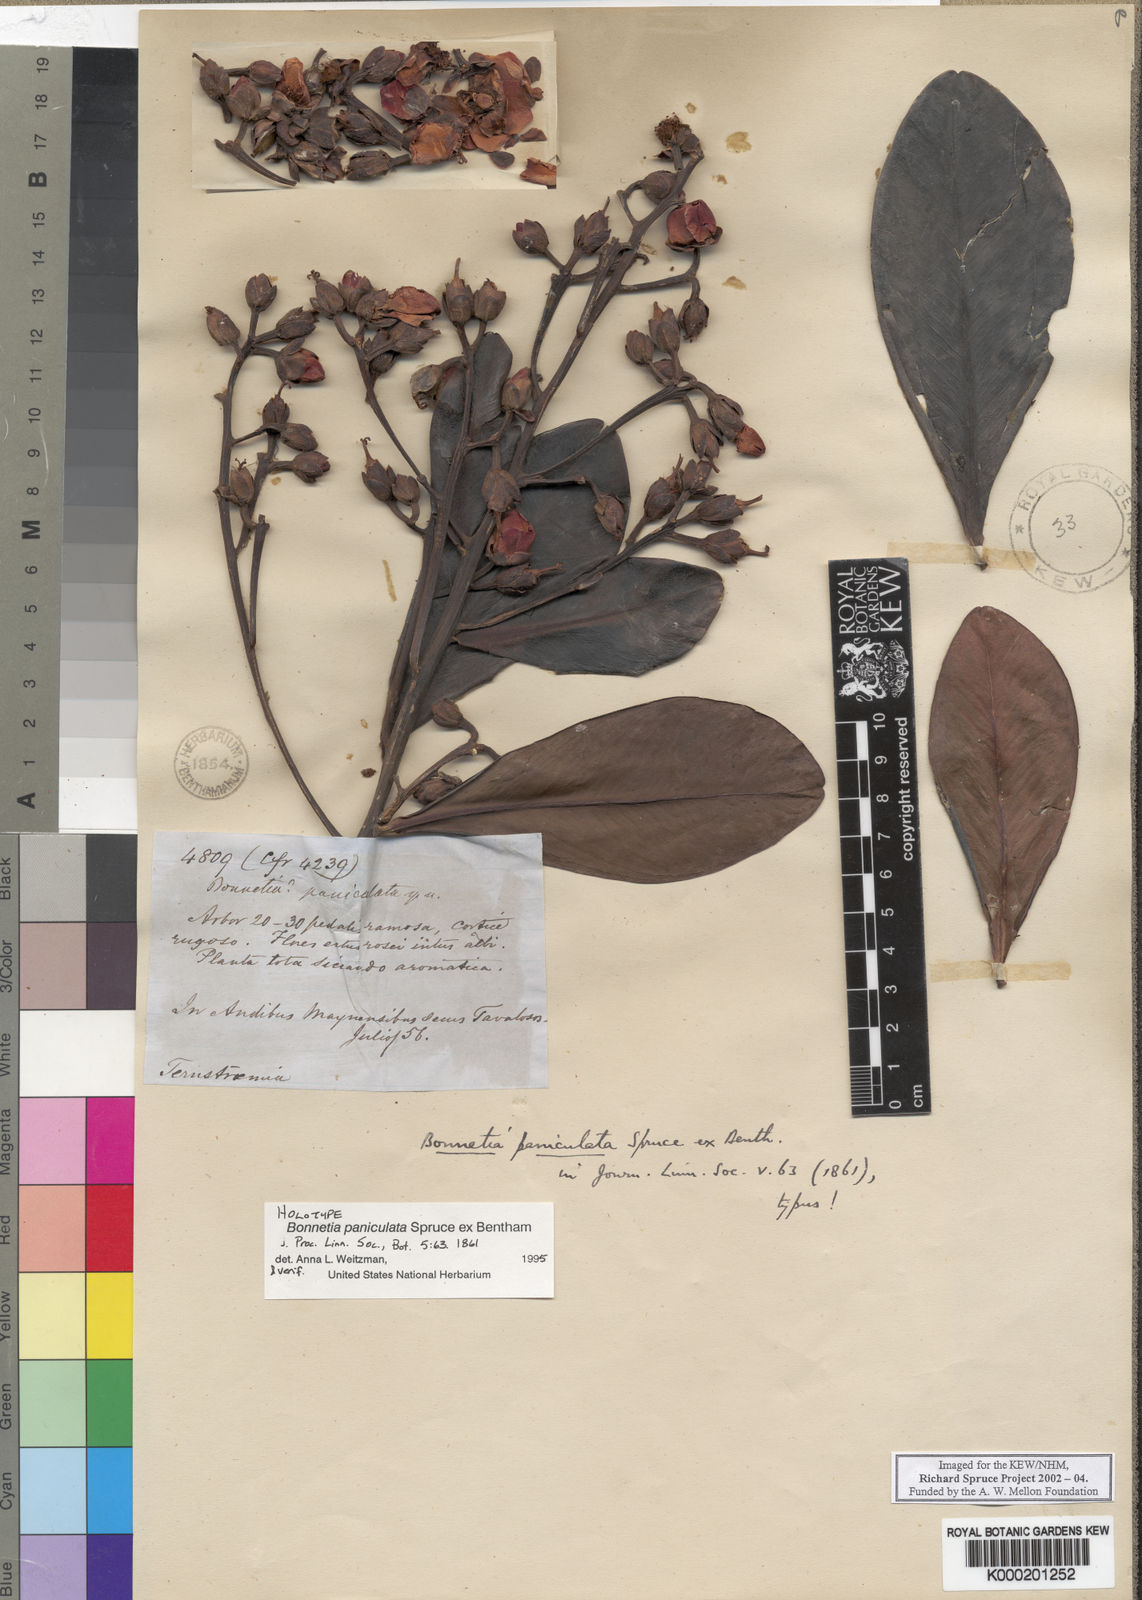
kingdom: Plantae
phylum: Tracheophyta
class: Magnoliopsida
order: Malpighiales
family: Bonnetiaceae
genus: Bonnetia
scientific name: Bonnetia paniculata
